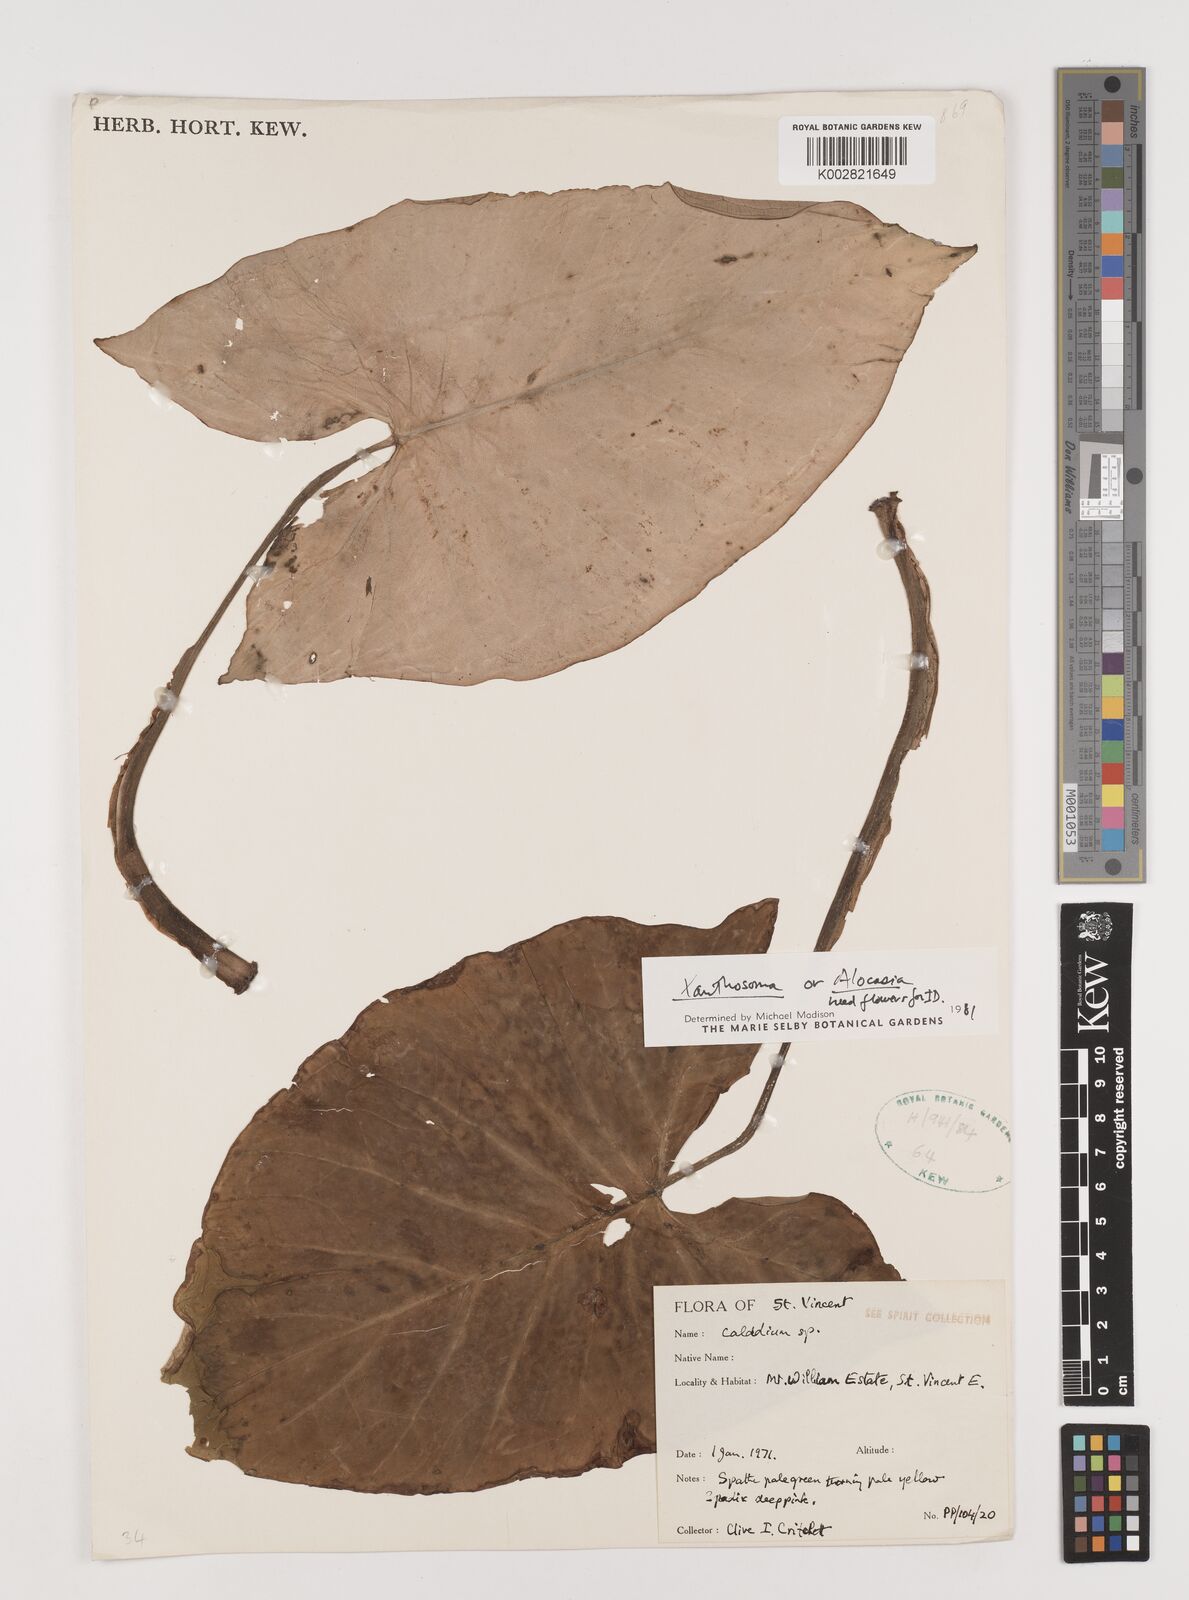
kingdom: Plantae
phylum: Tracheophyta
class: Liliopsida
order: Alismatales
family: Araceae
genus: Xanthosoma
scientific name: Xanthosoma
